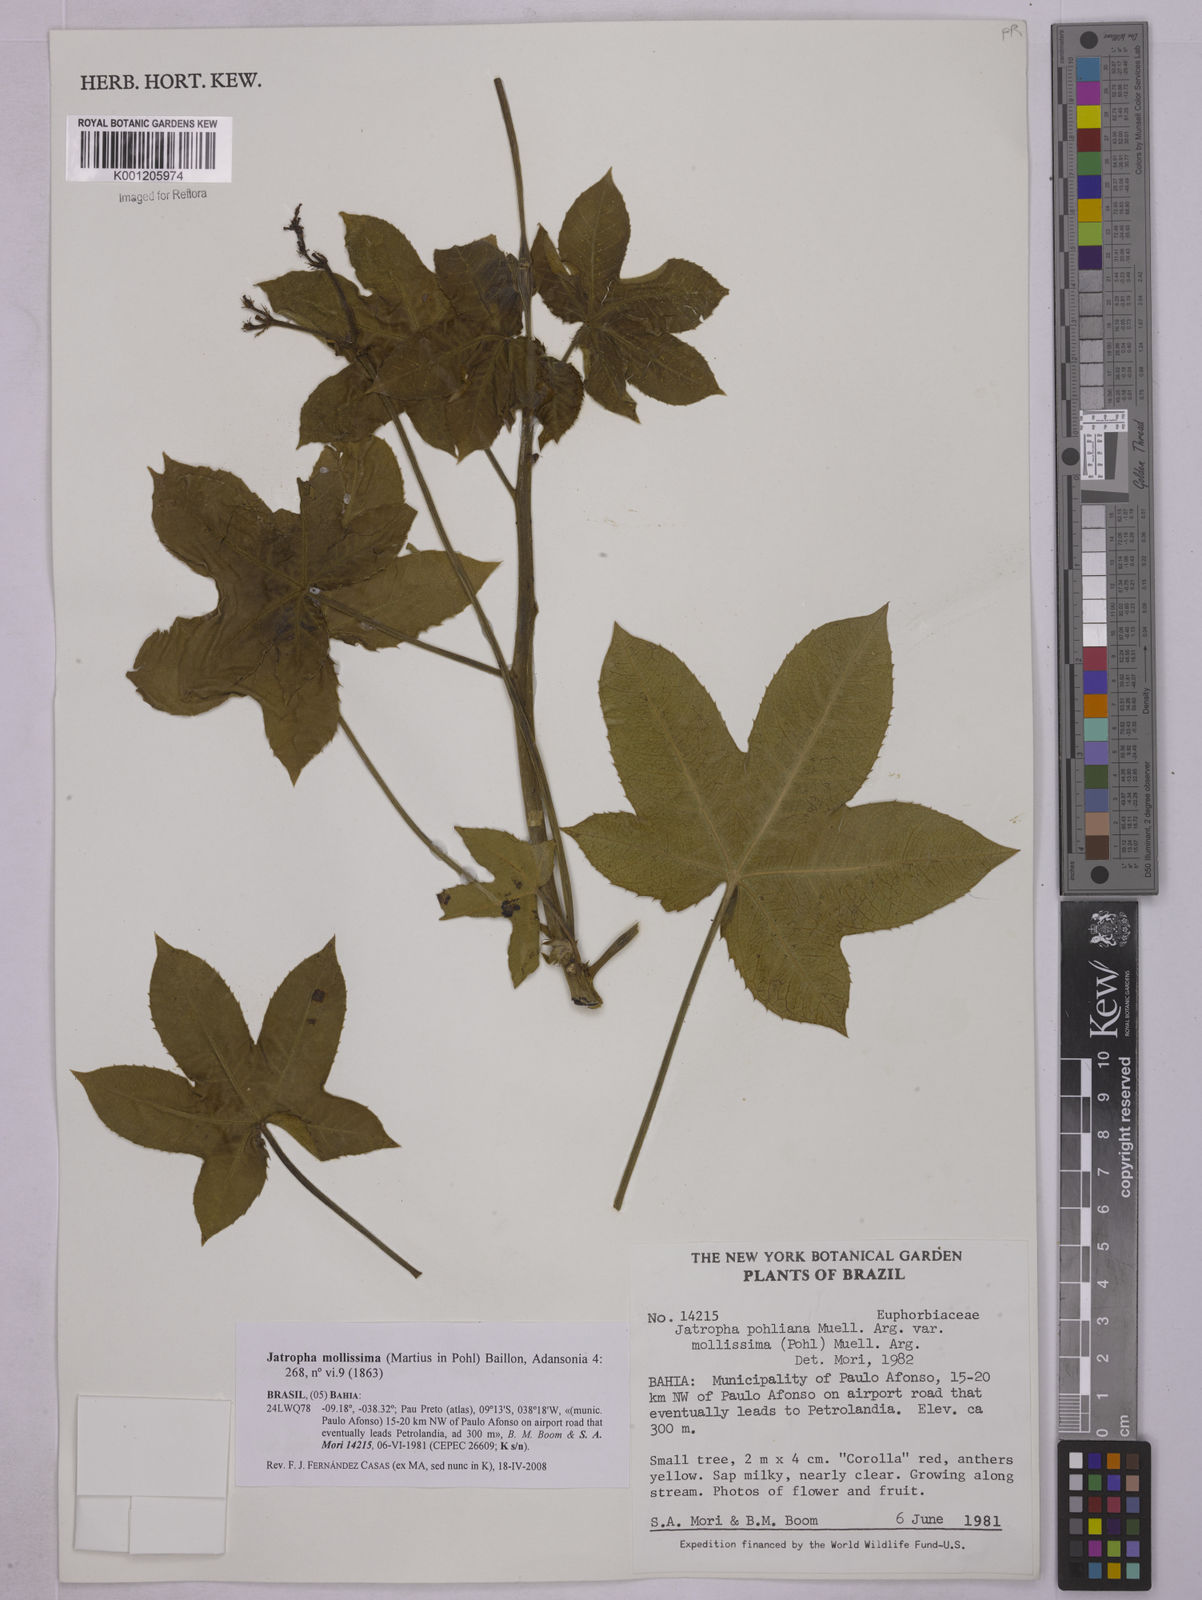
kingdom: Plantae
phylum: Tracheophyta
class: Magnoliopsida
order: Malpighiales
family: Euphorbiaceae
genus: Jatropha
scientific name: Jatropha mollissima
